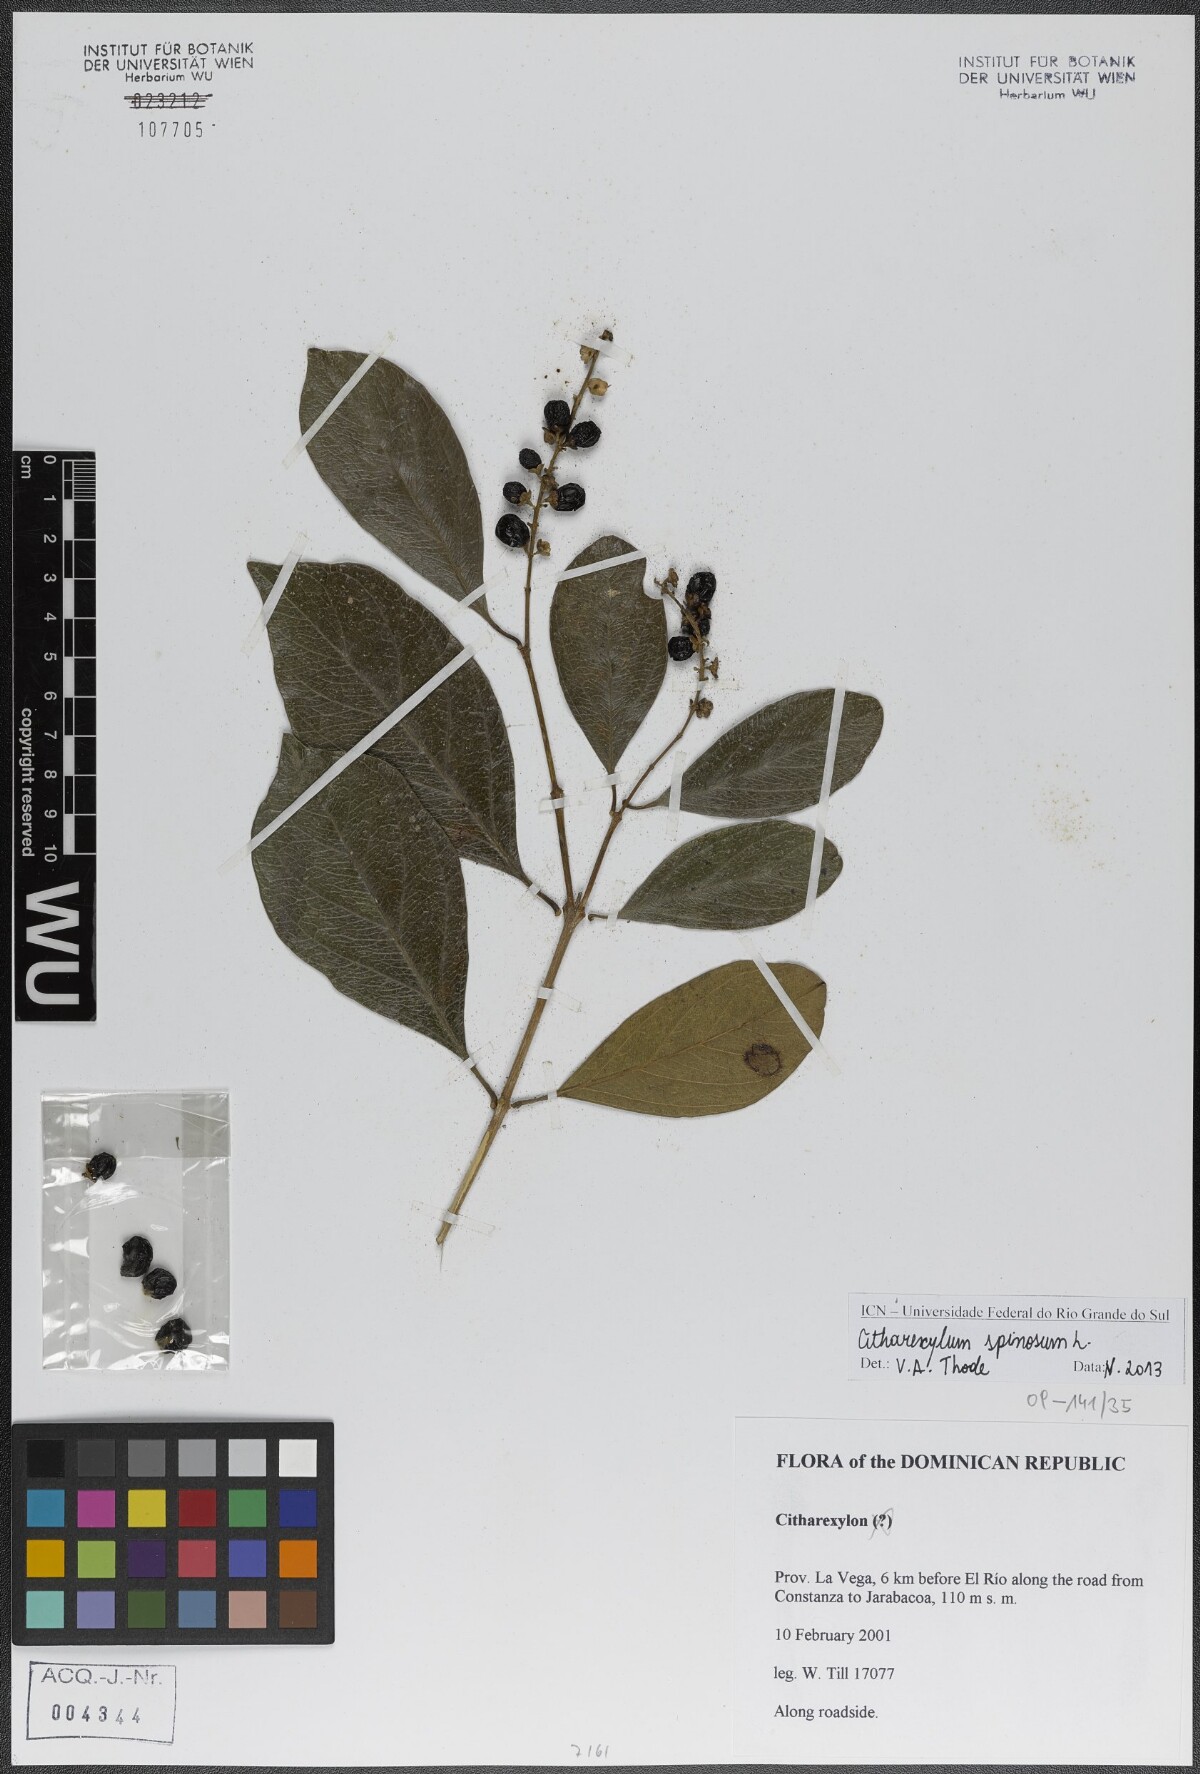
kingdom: Plantae
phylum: Tracheophyta
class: Magnoliopsida
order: Lamiales
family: Verbenaceae
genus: Citharexylum
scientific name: Citharexylum
